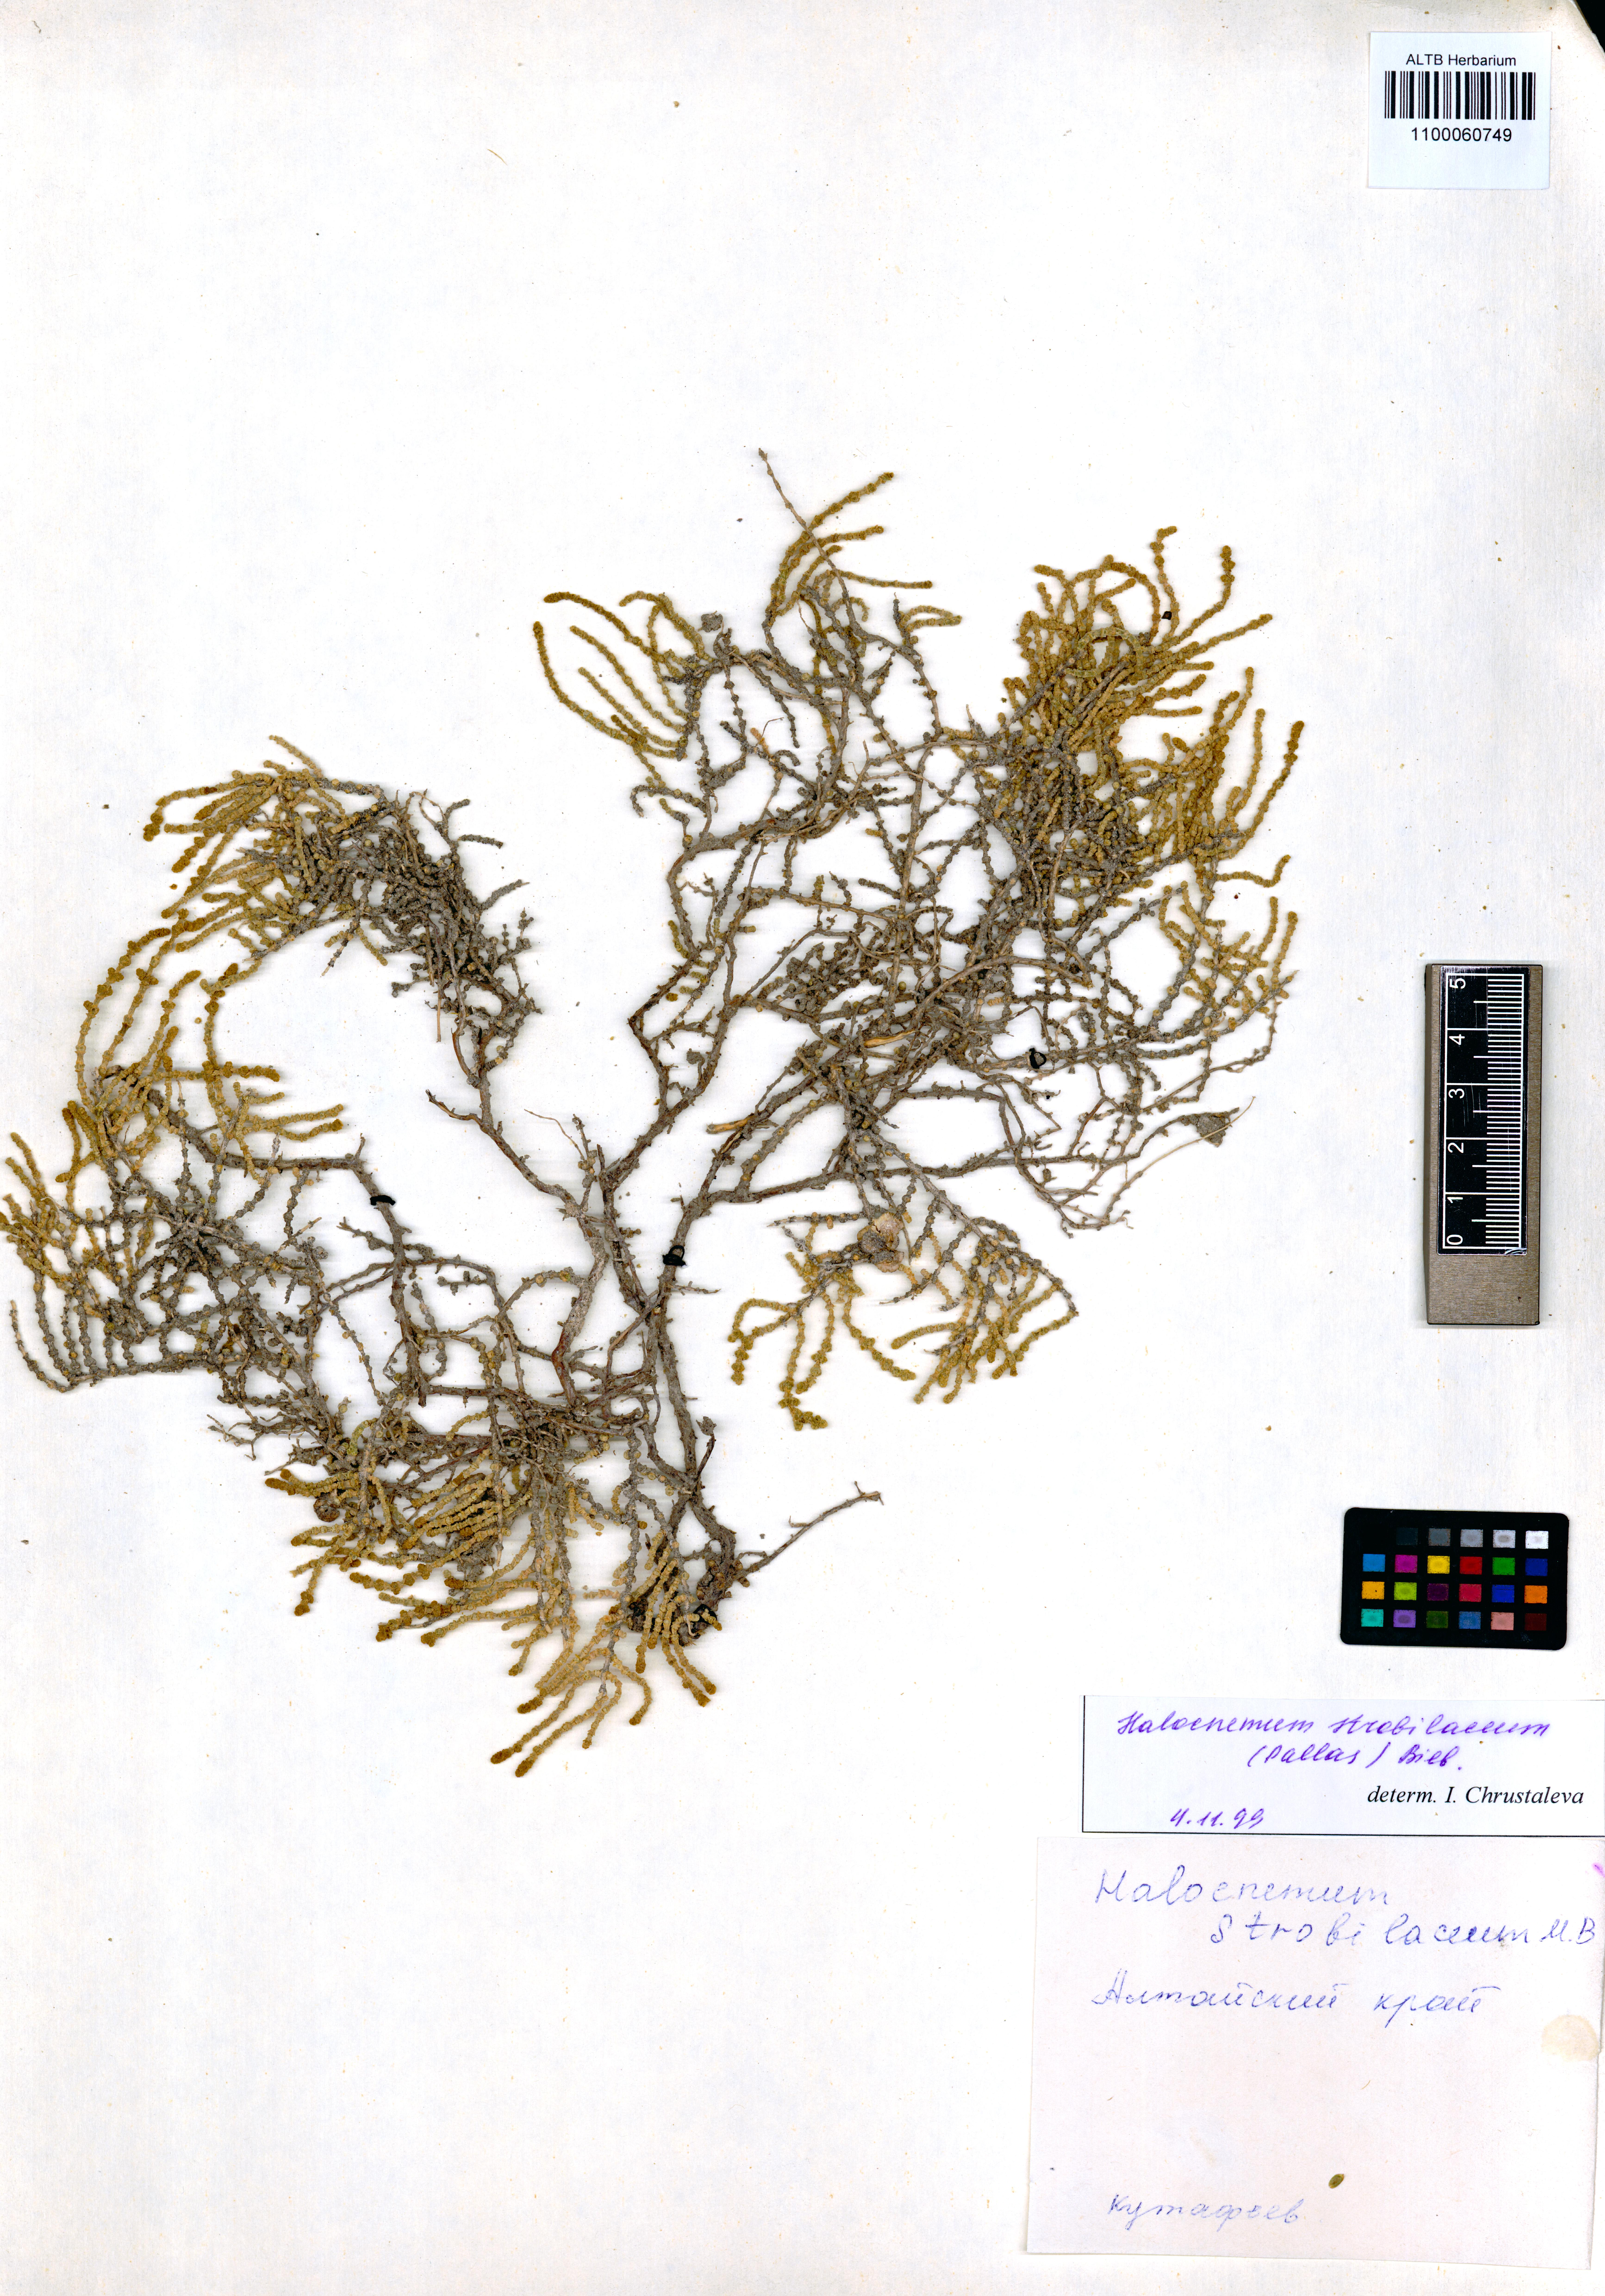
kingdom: Plantae
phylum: Tracheophyta
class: Magnoliopsida
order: Caryophyllales
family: Amaranthaceae
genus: Halocnemum
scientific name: Halocnemum strobilaceum
